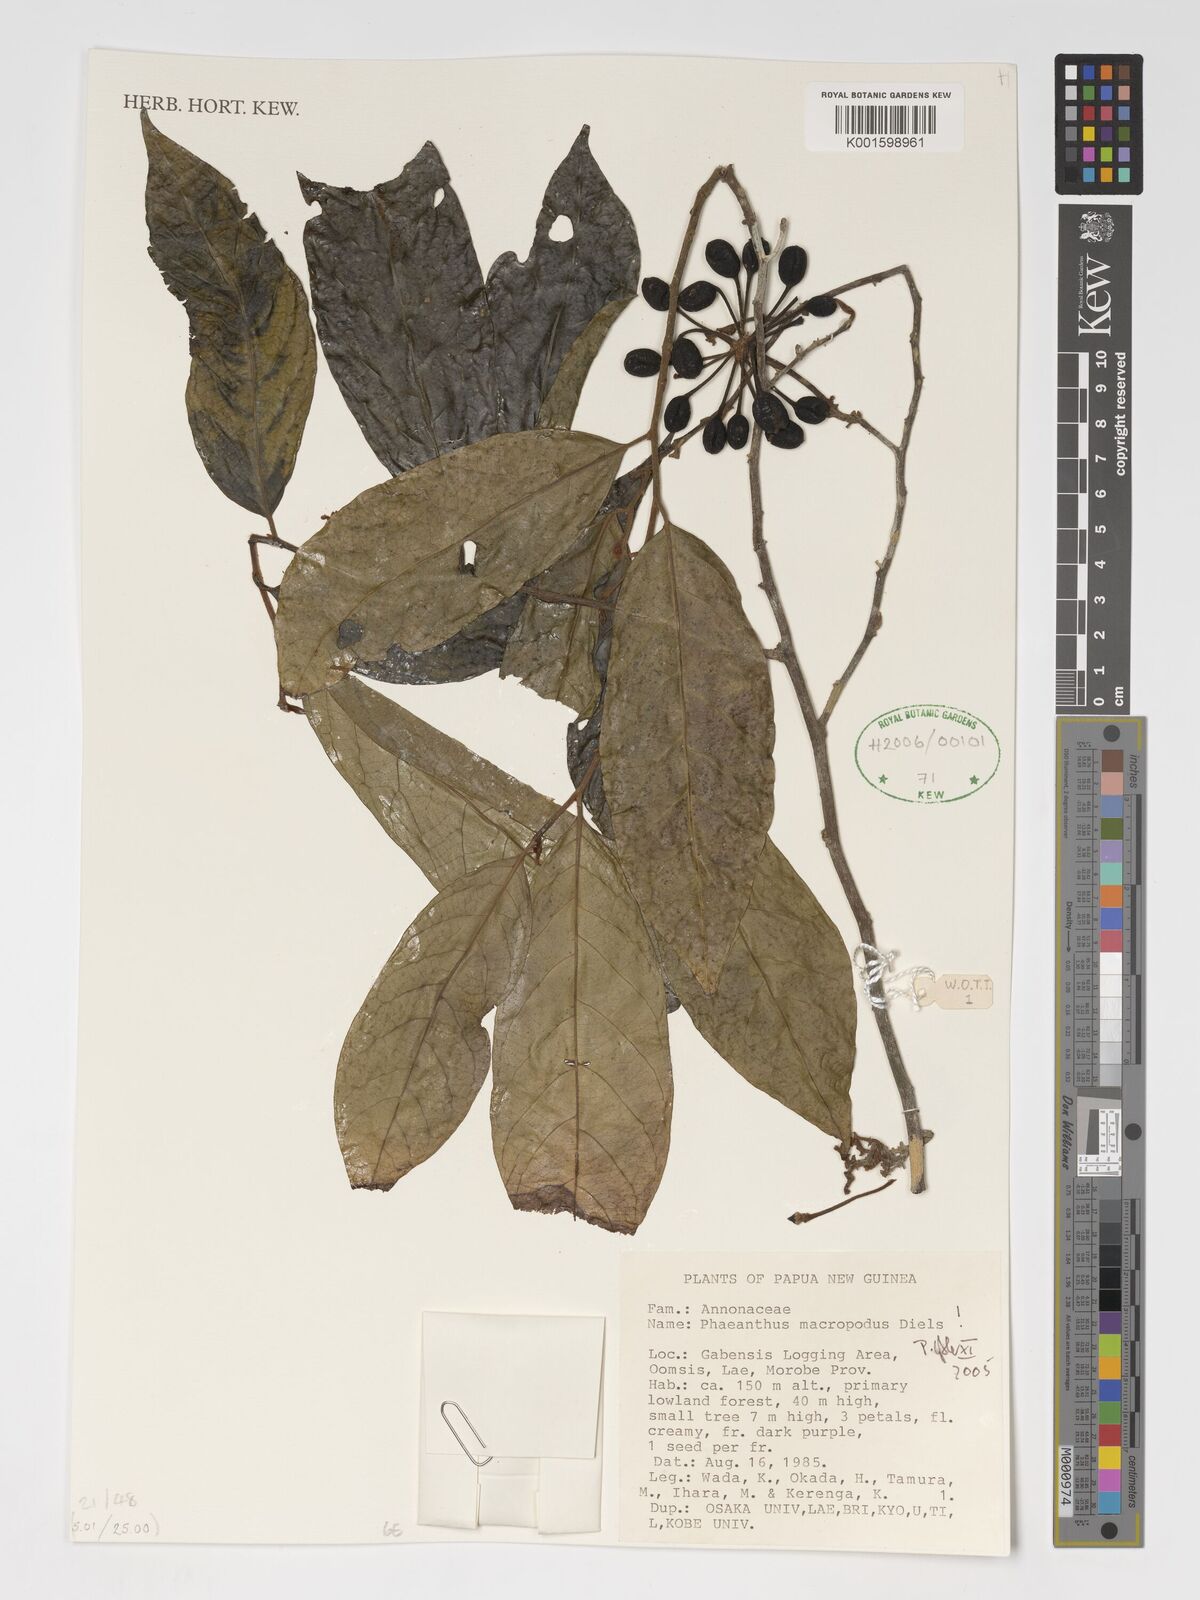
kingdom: Plantae
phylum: Tracheophyta
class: Magnoliopsida
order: Magnoliales
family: Annonaceae
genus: Phaeanthus
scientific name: Phaeanthus ophthalmicus
